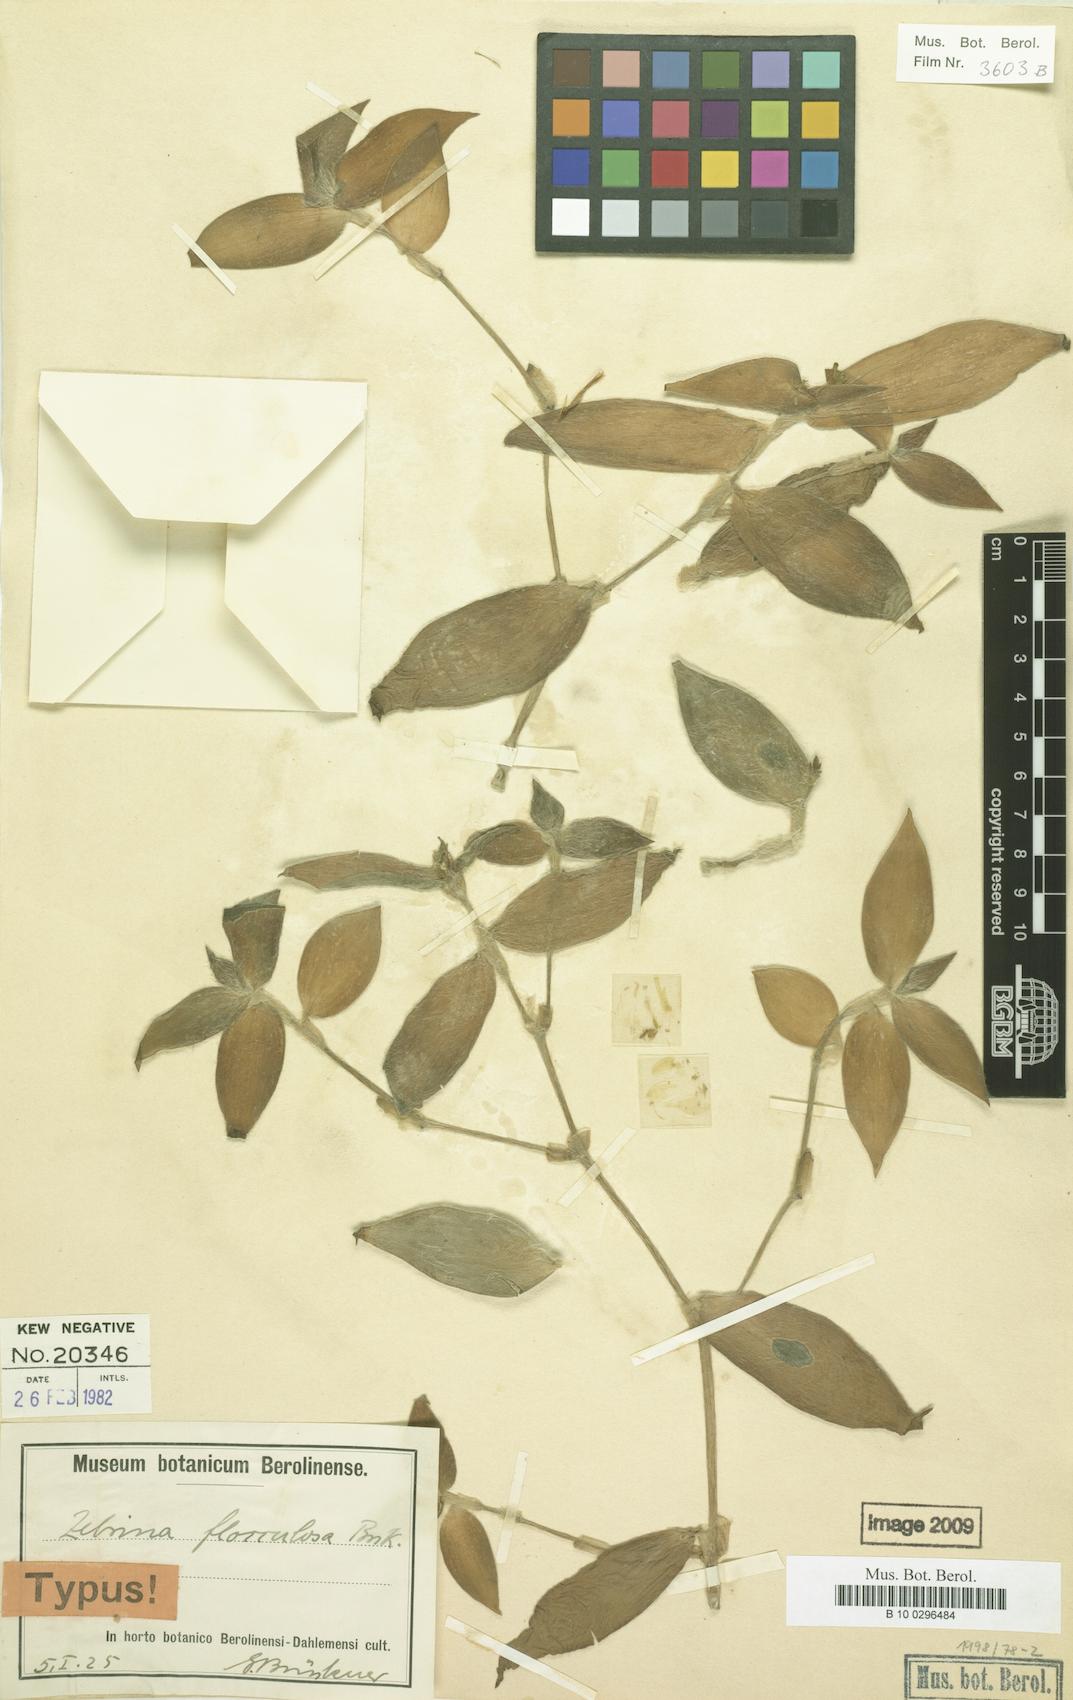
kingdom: Plantae
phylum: Tracheophyta
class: Liliopsida
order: Commelinales
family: Commelinaceae
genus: Tradescantia
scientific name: Tradescantia zebrina
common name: Inchplant
